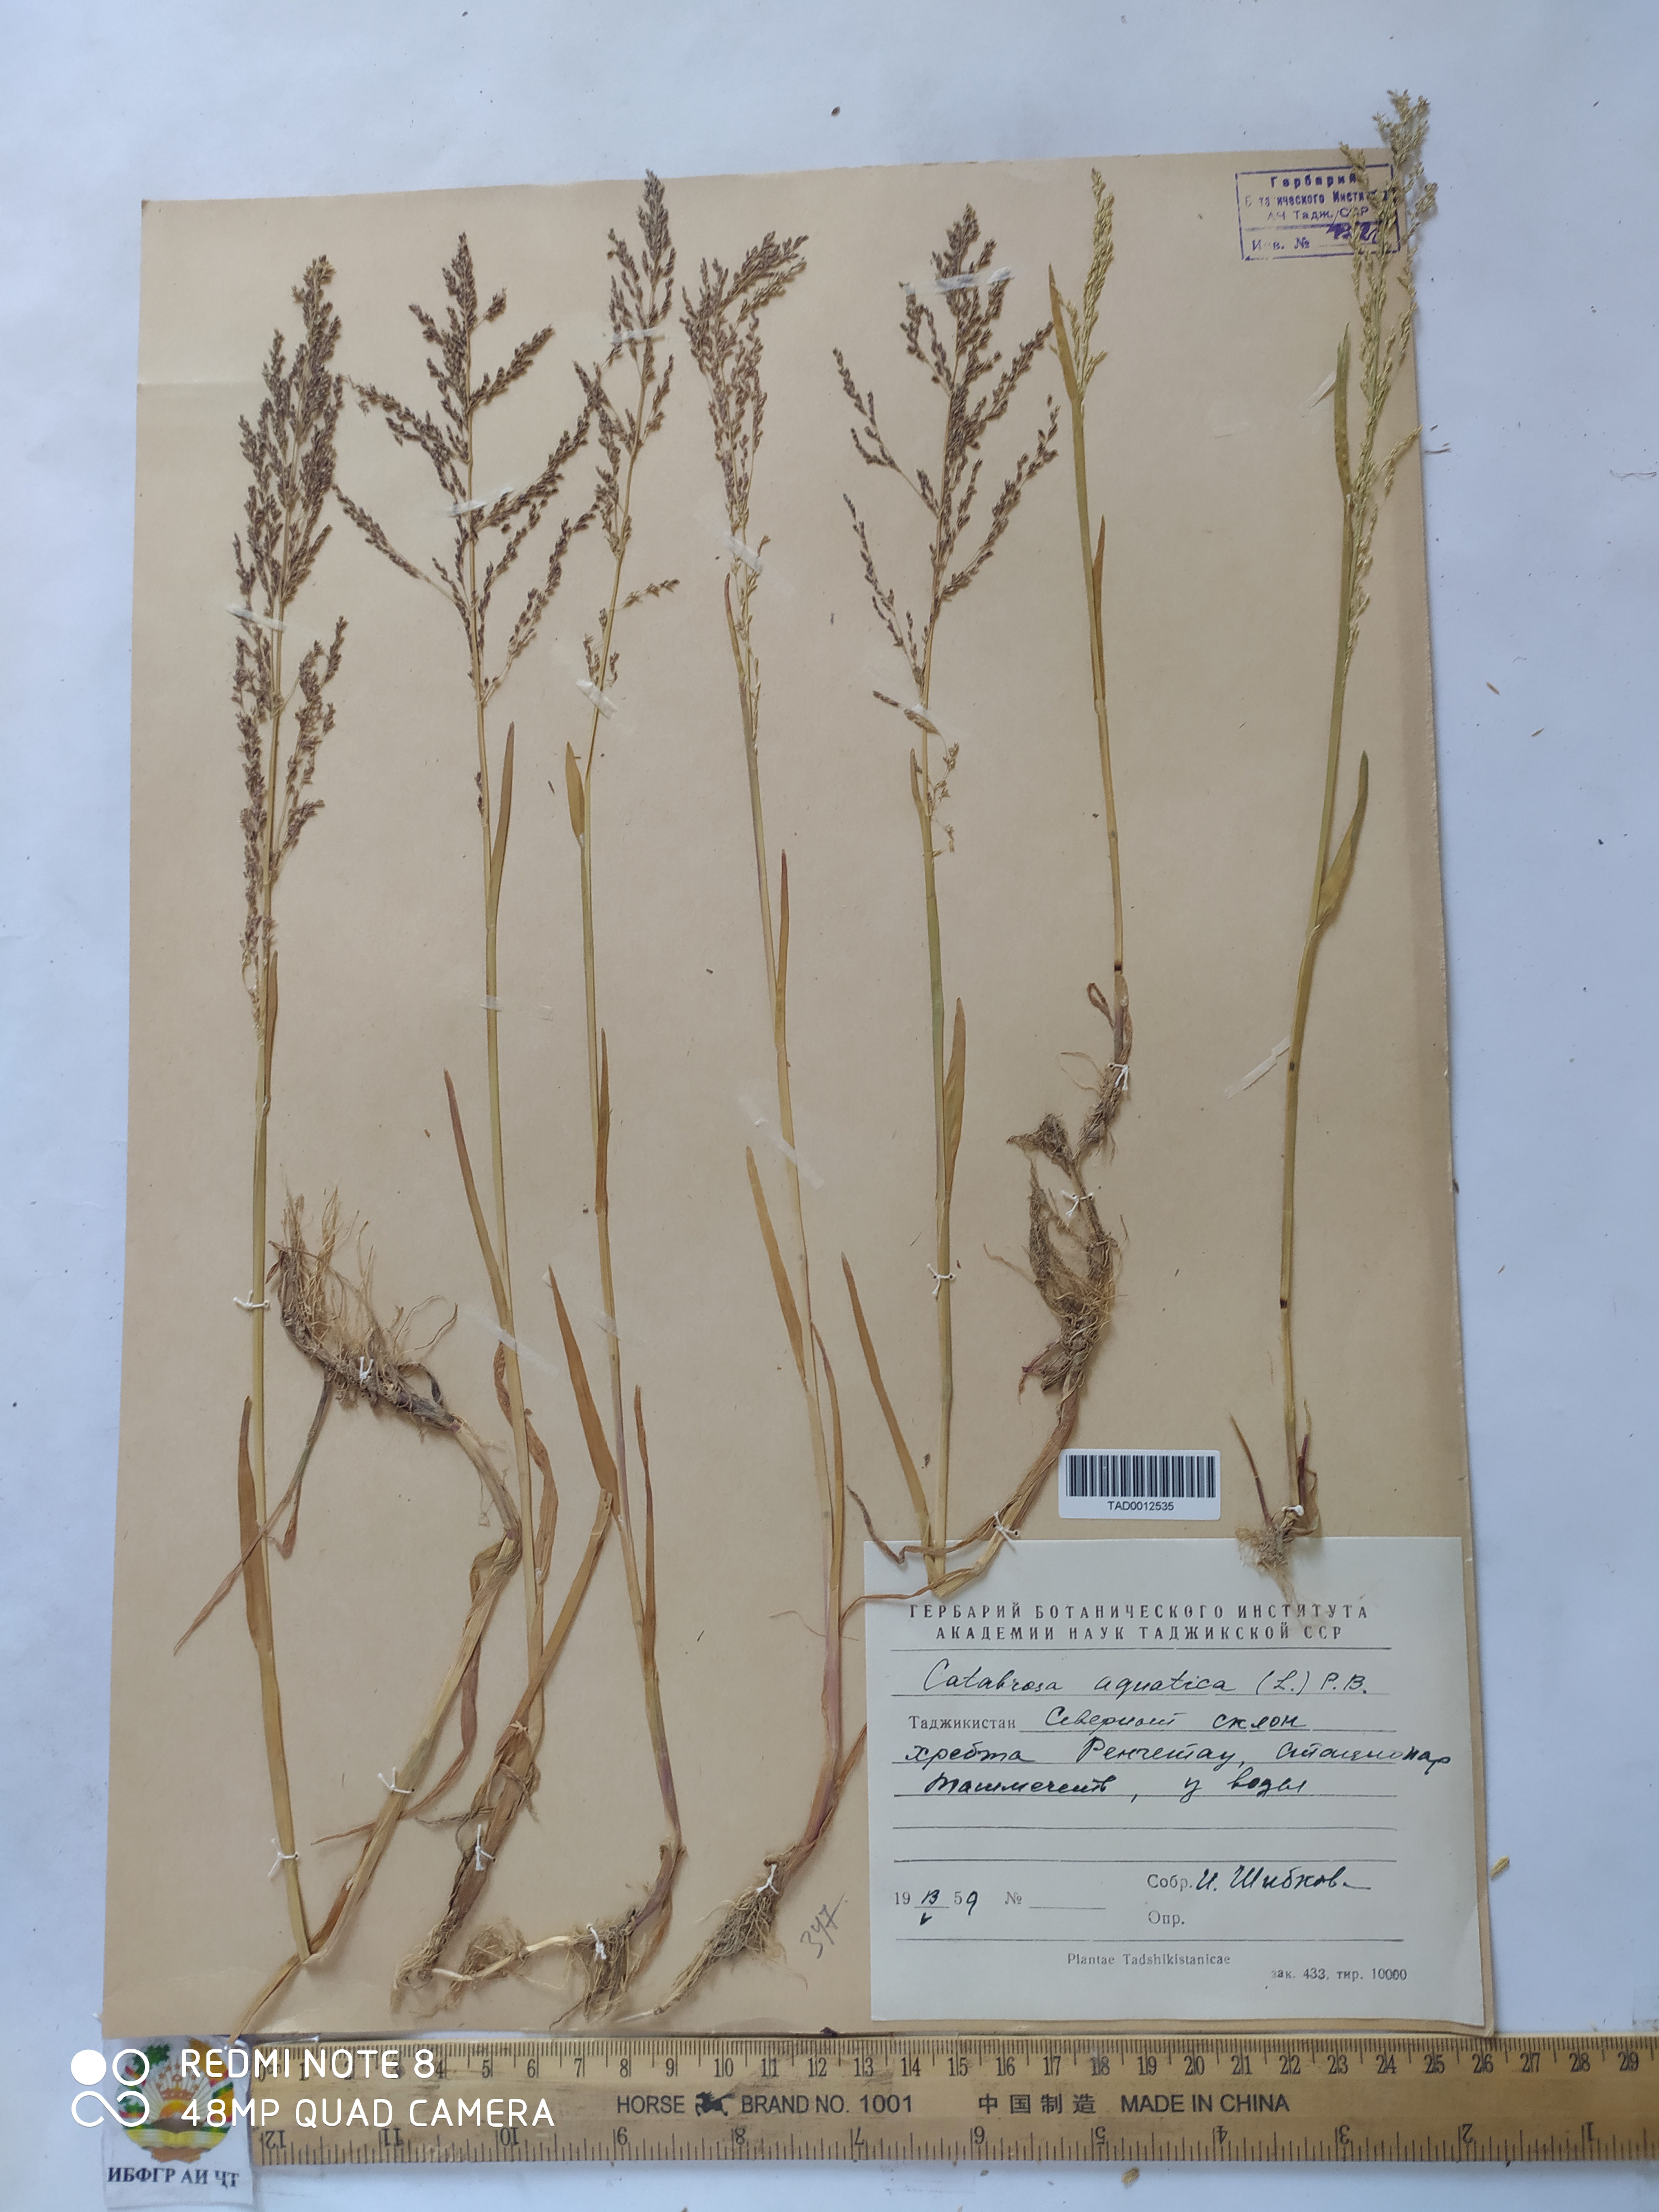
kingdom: Plantae
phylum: Tracheophyta
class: Liliopsida
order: Poales
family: Poaceae
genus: Catabrosa
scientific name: Catabrosa aquatica
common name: Whorl-grass
